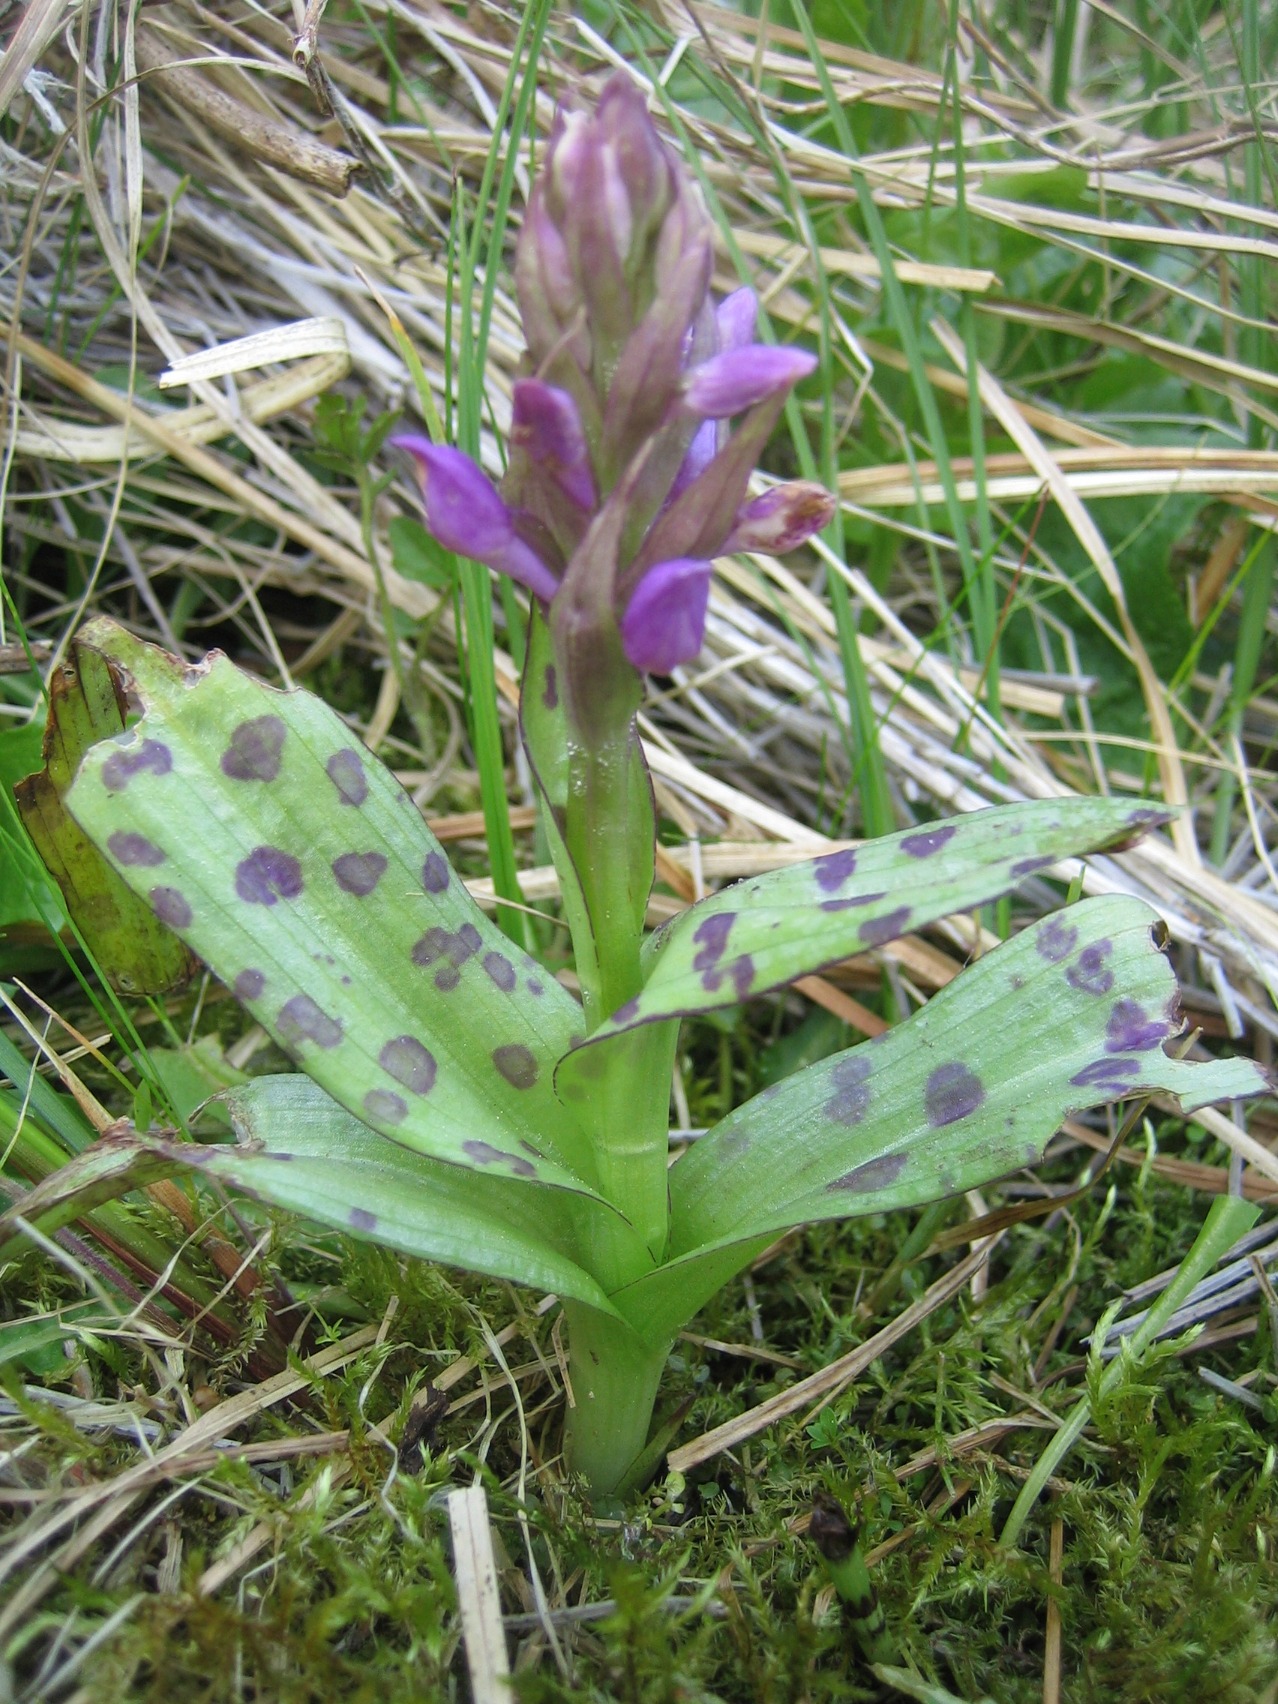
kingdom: Plantae
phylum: Tracheophyta
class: Liliopsida
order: Asparagales
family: Orchidaceae
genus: Dactylorhiza
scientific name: Dactylorhiza majalis
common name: Maj-gøgeurt
